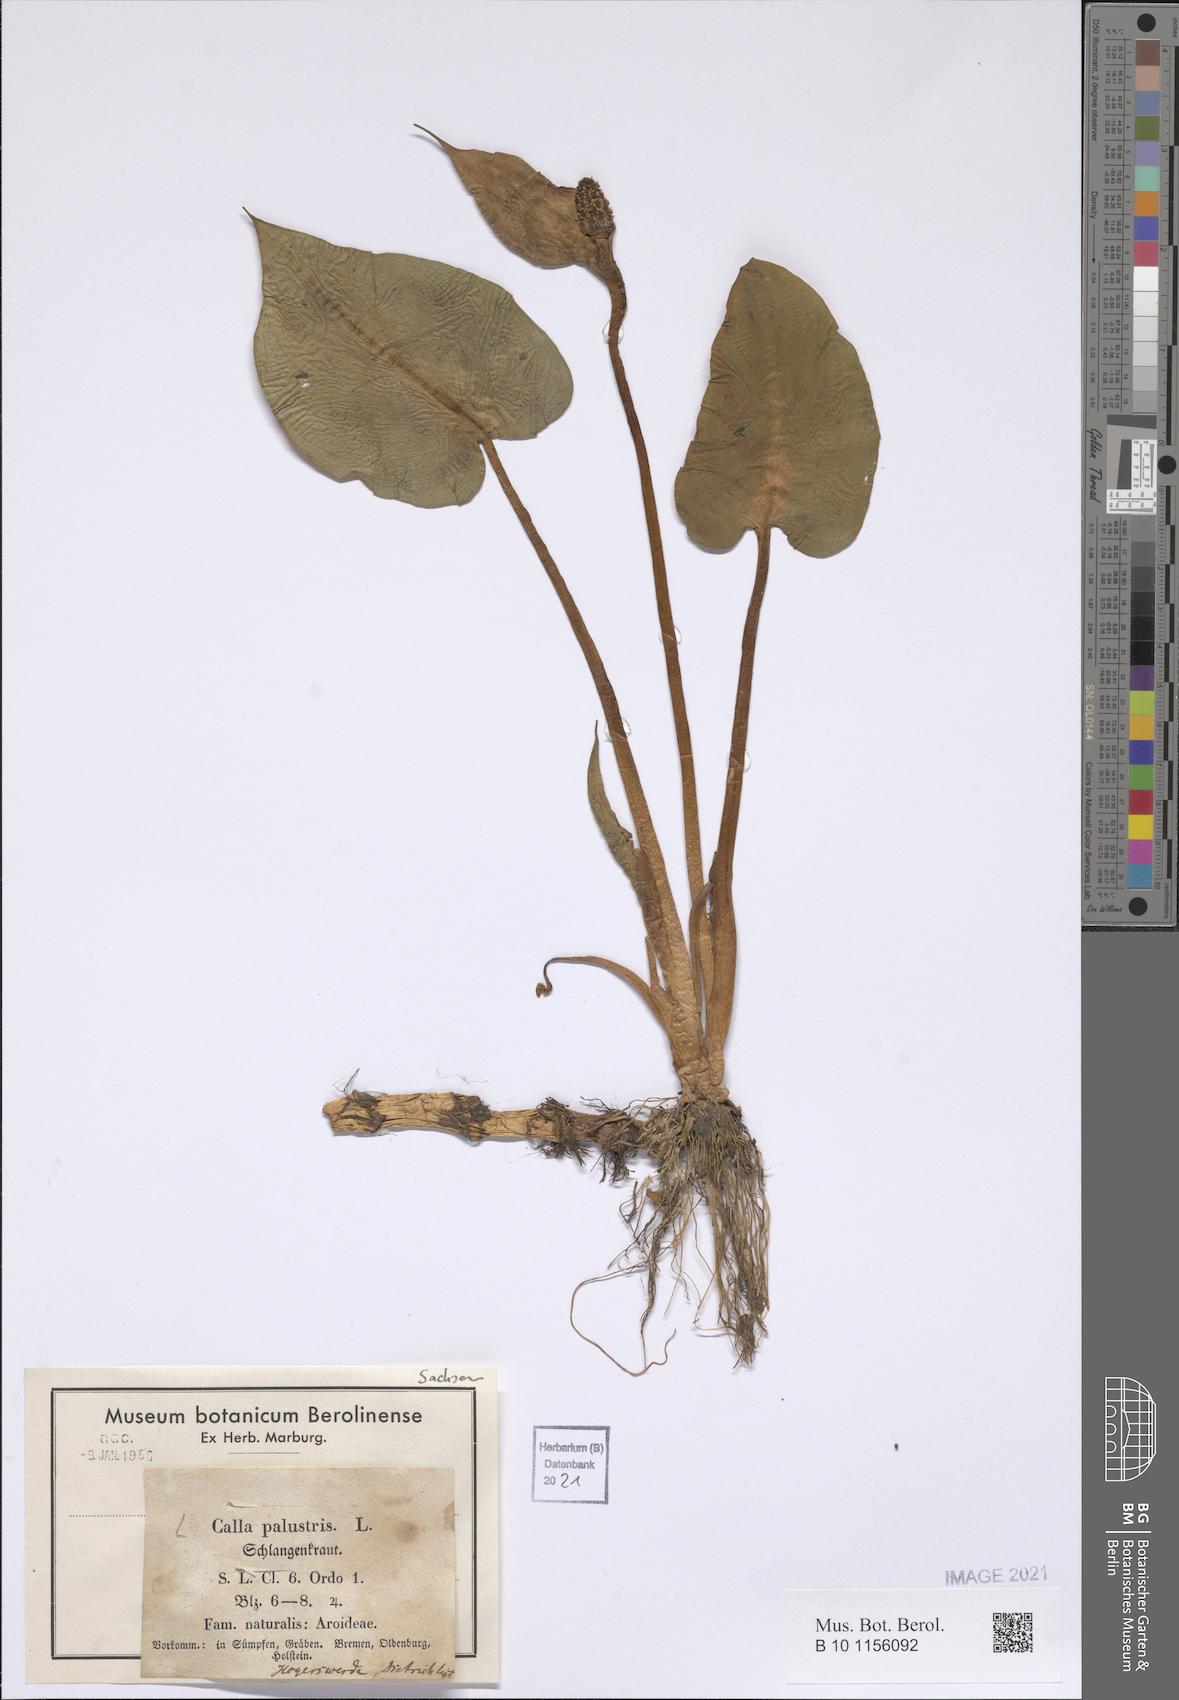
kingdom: Plantae
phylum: Tracheophyta
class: Liliopsida
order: Alismatales
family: Araceae
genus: Calla
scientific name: Calla palustris
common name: Bog arum
